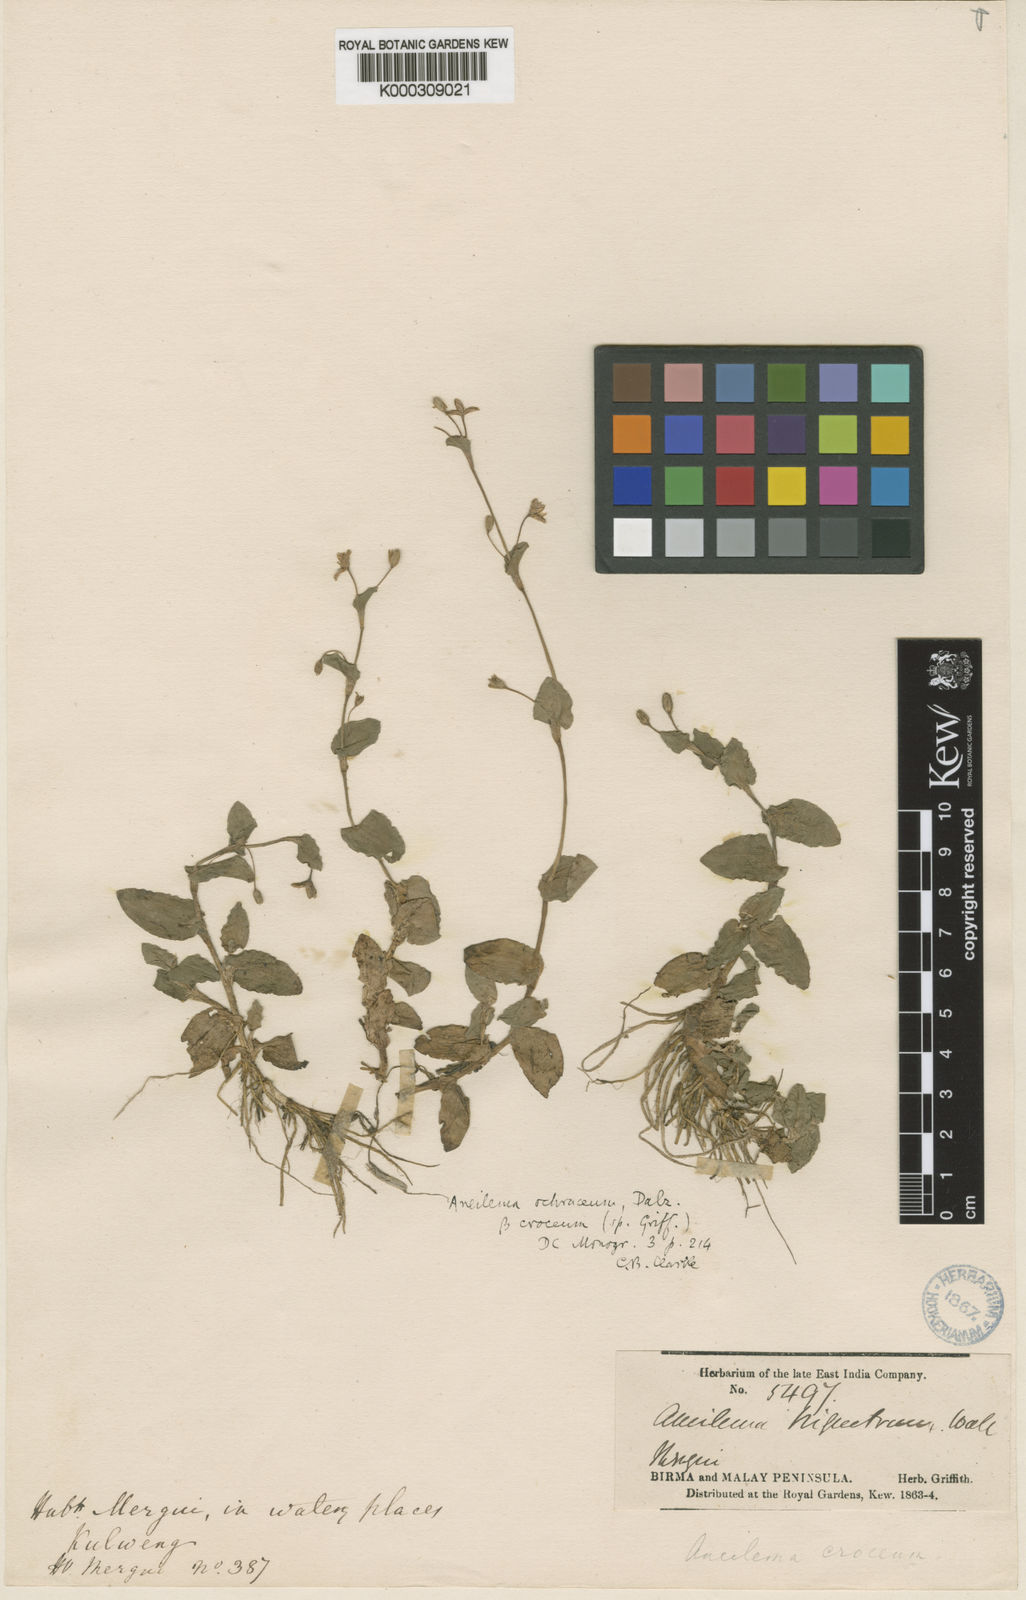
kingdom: Plantae
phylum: Tracheophyta
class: Liliopsida
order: Commelinales
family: Commelinaceae
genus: Murdannia
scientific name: Murdannia
